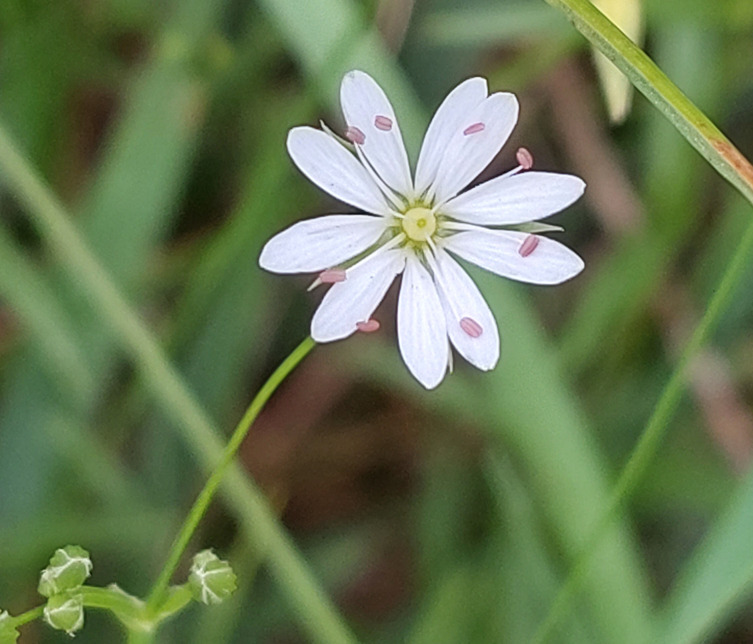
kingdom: Plantae
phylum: Tracheophyta
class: Magnoliopsida
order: Caryophyllales
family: Caryophyllaceae
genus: Stellaria
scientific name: Stellaria graminea
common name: Græsbladet fladstjerne
